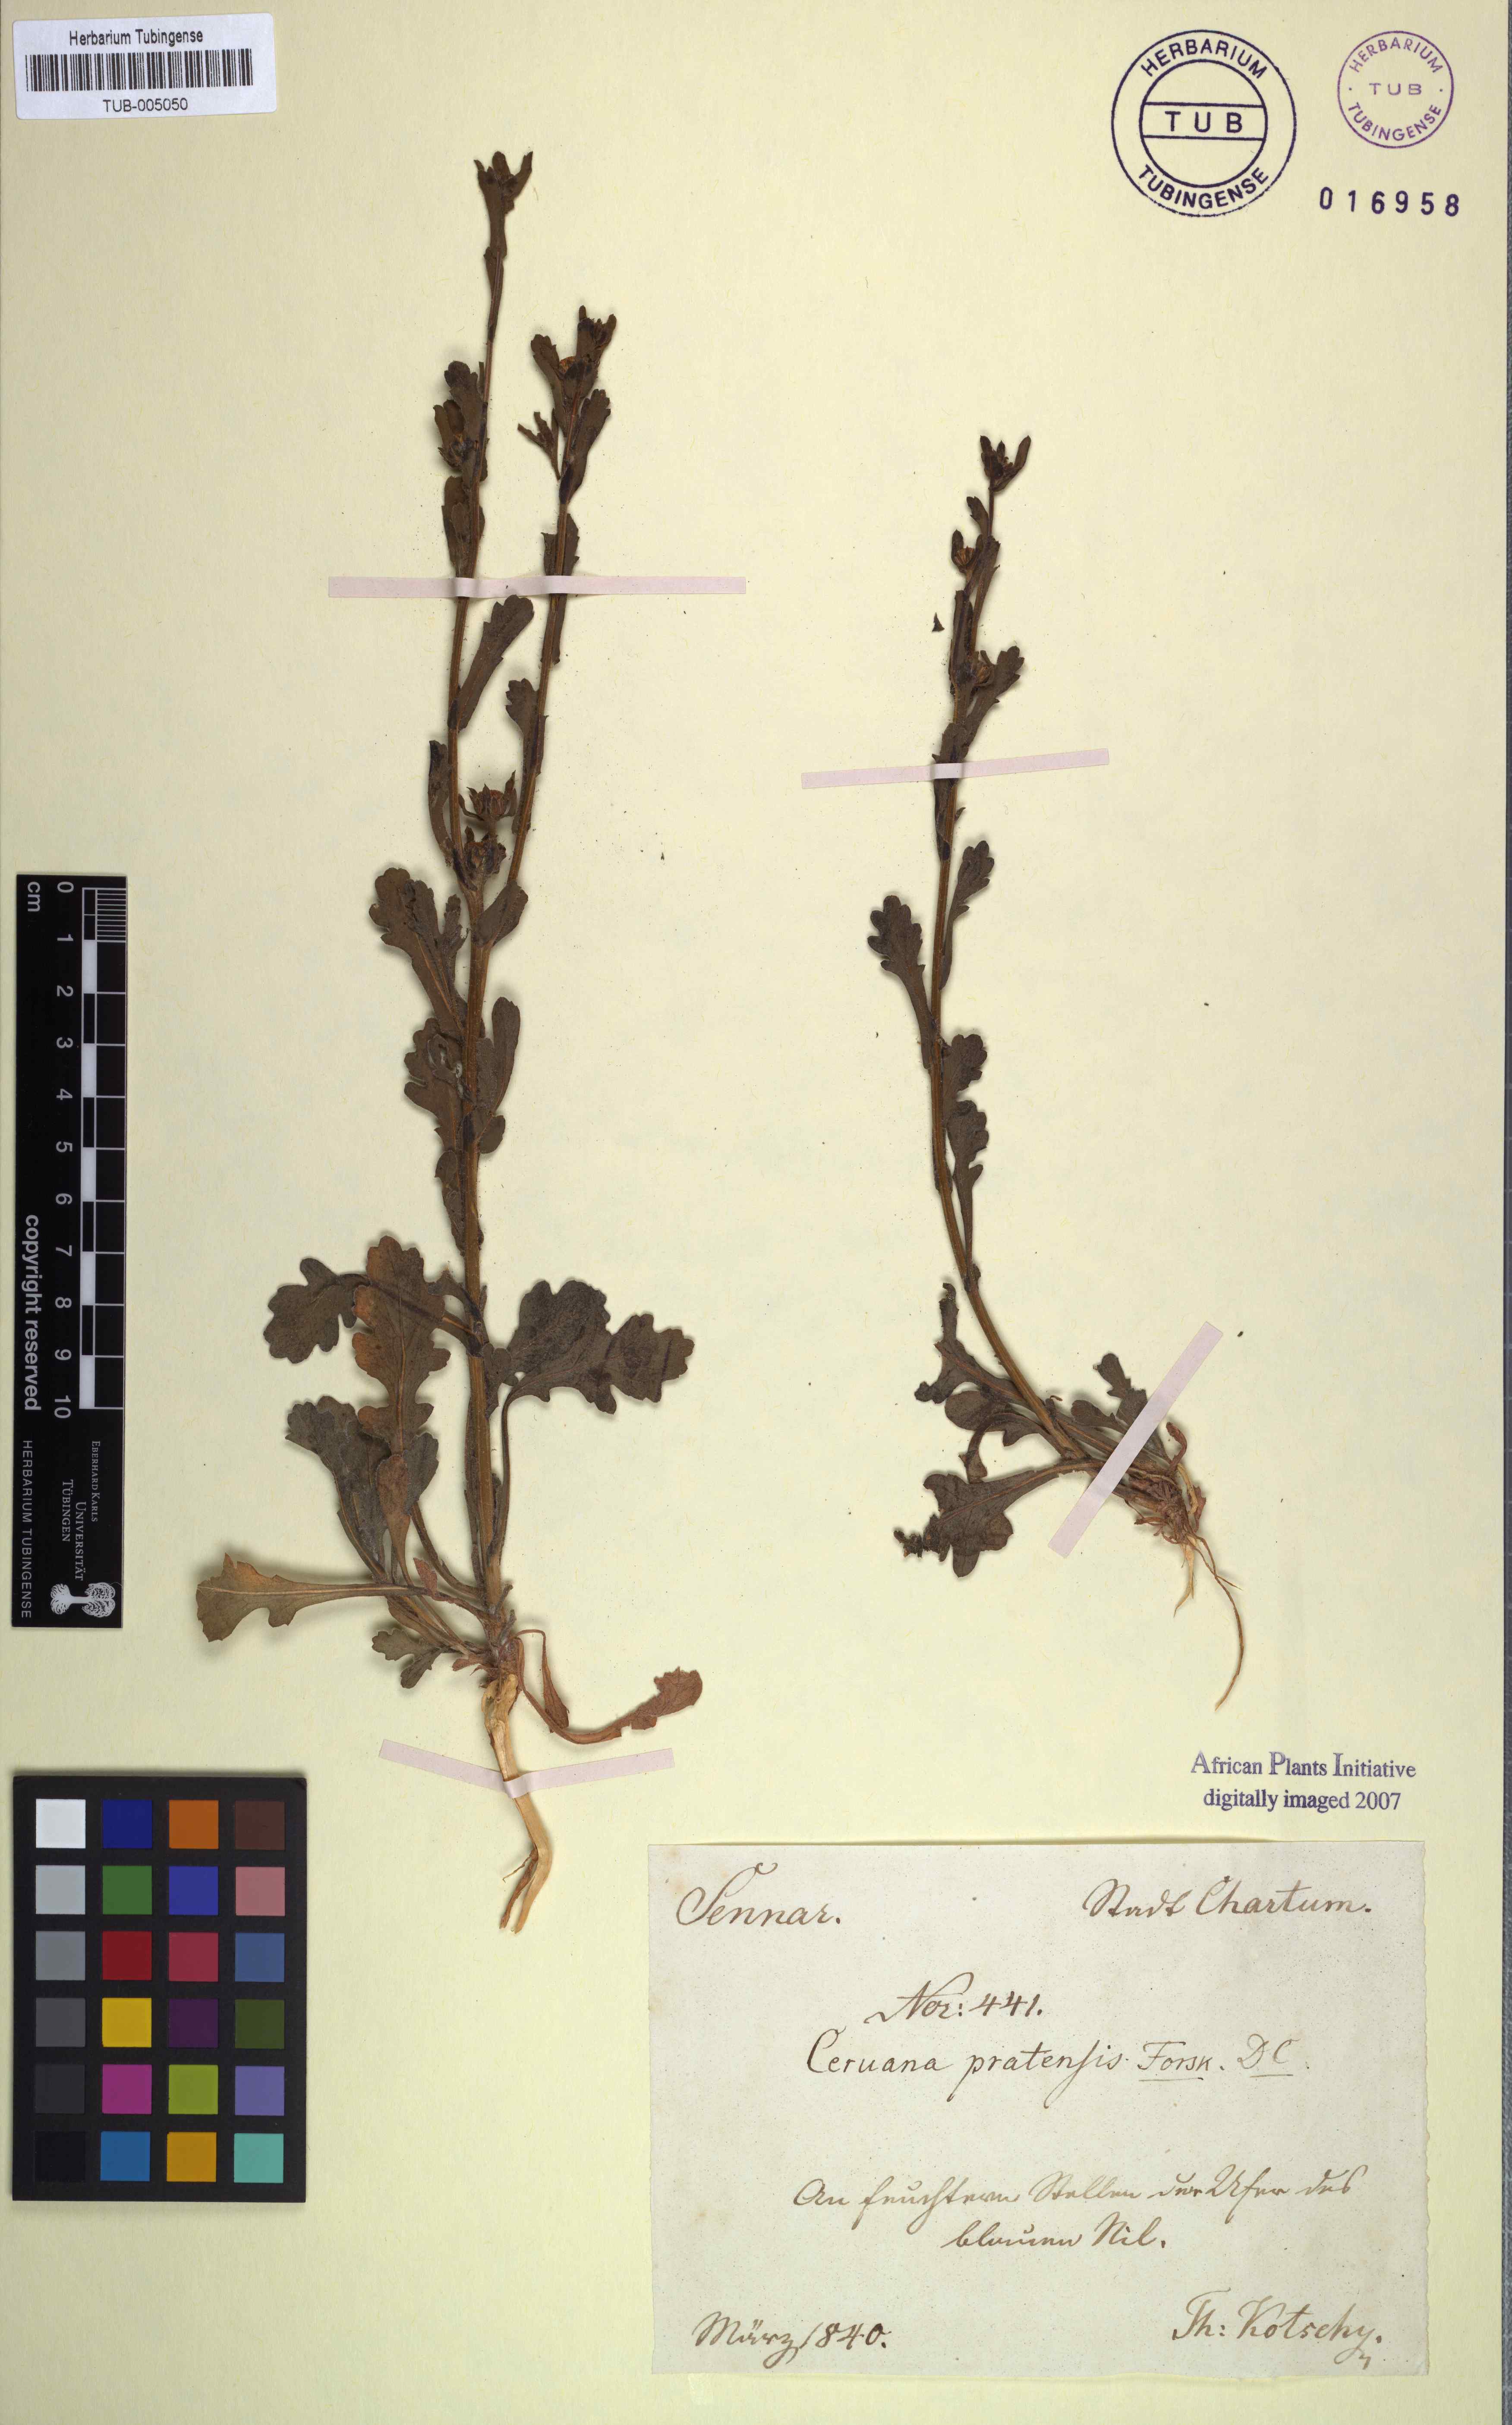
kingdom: Plantae
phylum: Tracheophyta
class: Magnoliopsida
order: Asterales
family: Asteraceae
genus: Ceruana
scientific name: Ceruana pratensis
